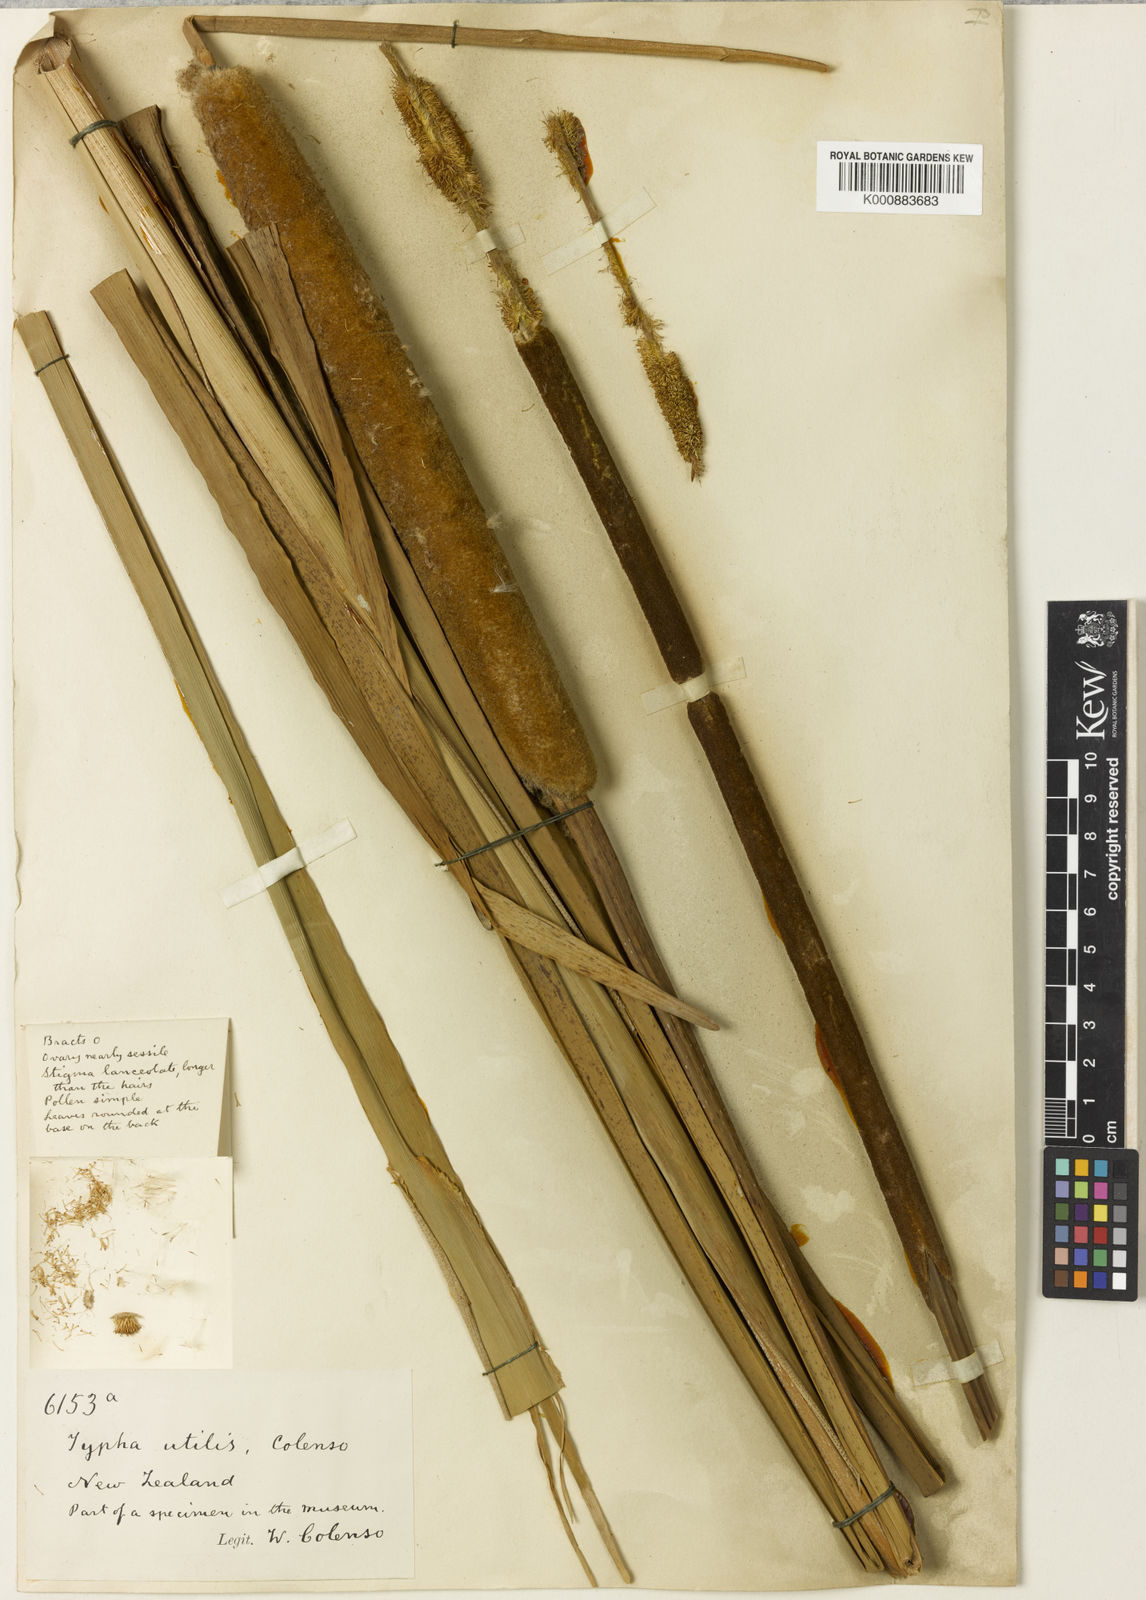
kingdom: Plantae
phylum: Tracheophyta
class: Liliopsida
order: Poales
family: Typhaceae
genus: Typha
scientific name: Typha domingensis
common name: Southern cattail
